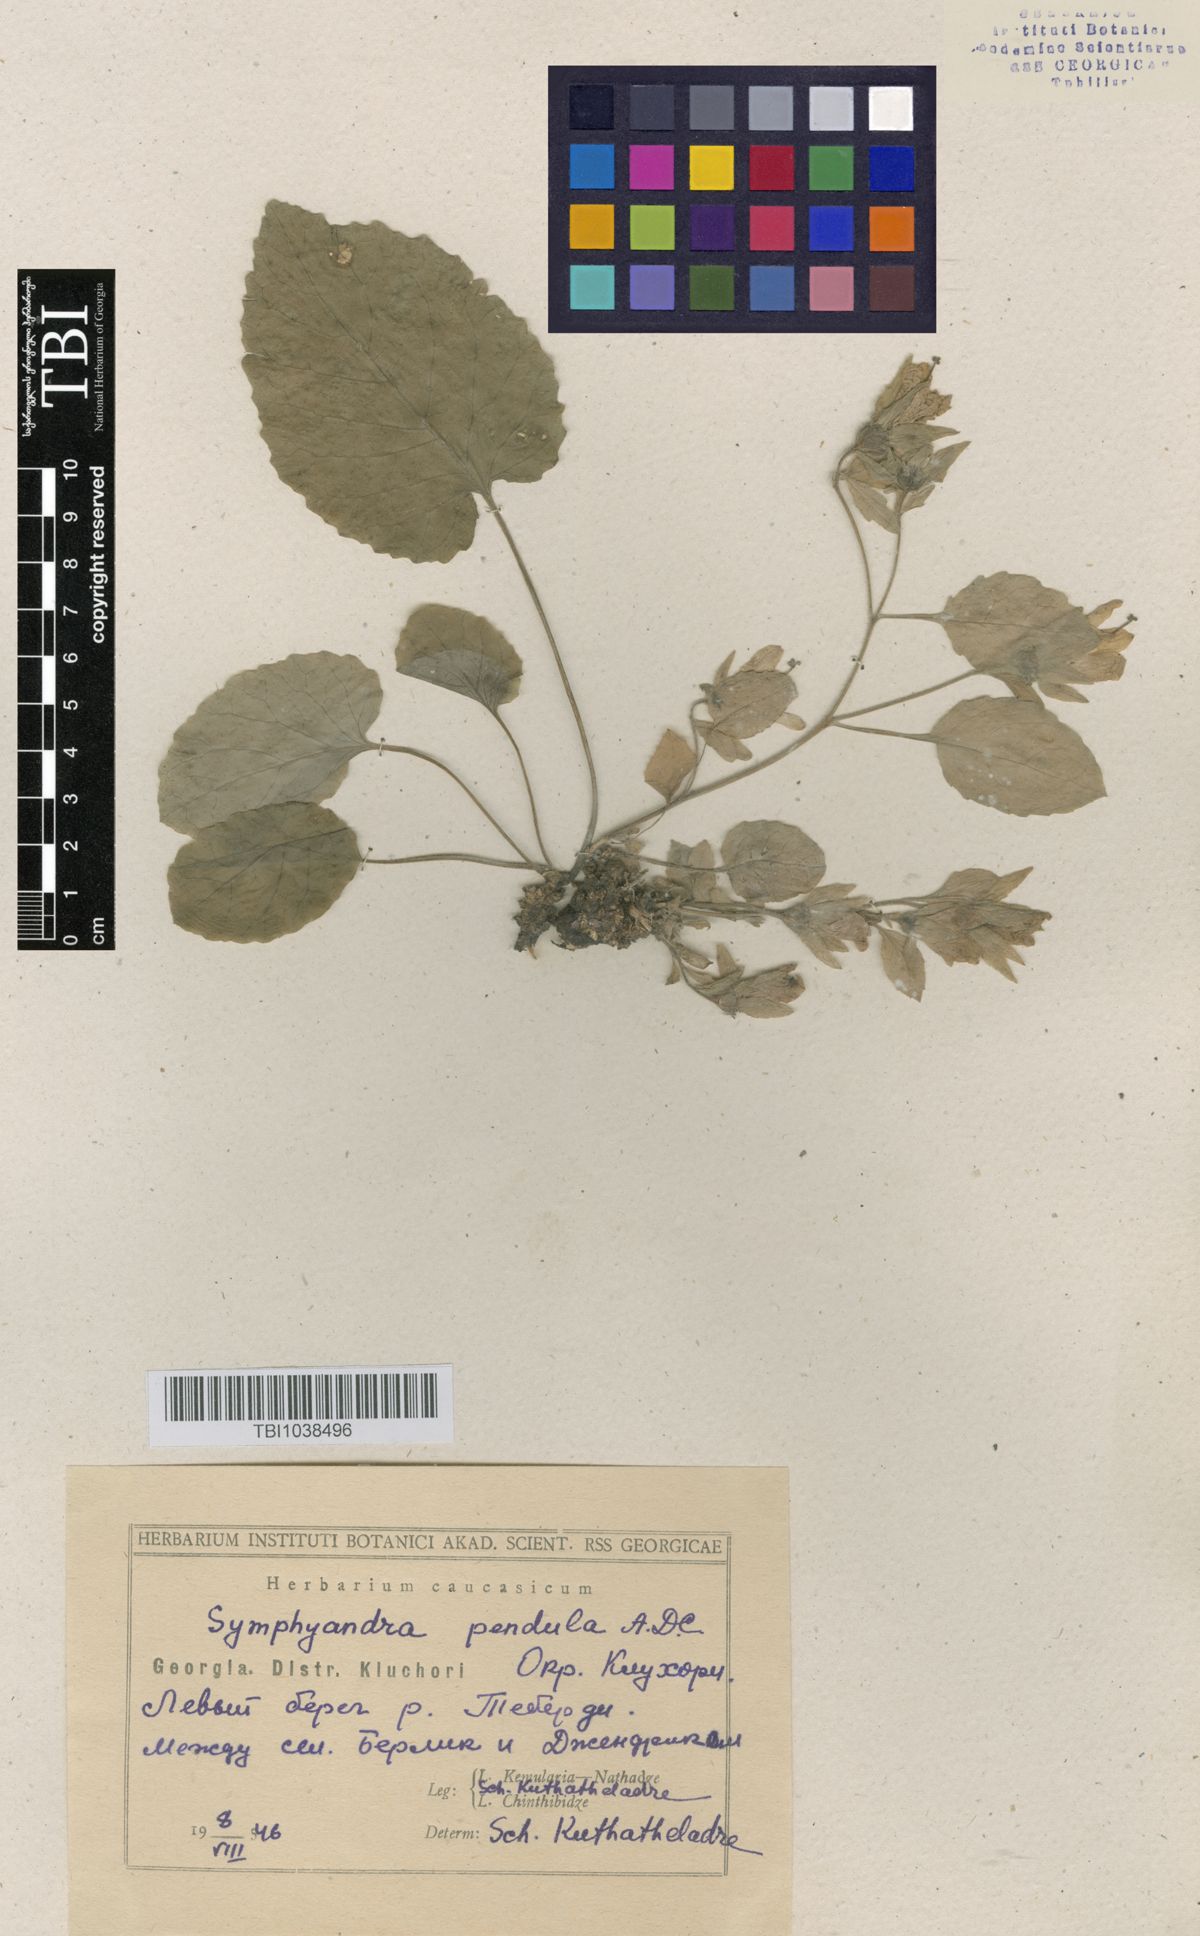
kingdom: Plantae
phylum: Tracheophyta
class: Magnoliopsida
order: Asterales
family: Campanulaceae
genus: Campanula
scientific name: Campanula pendula
